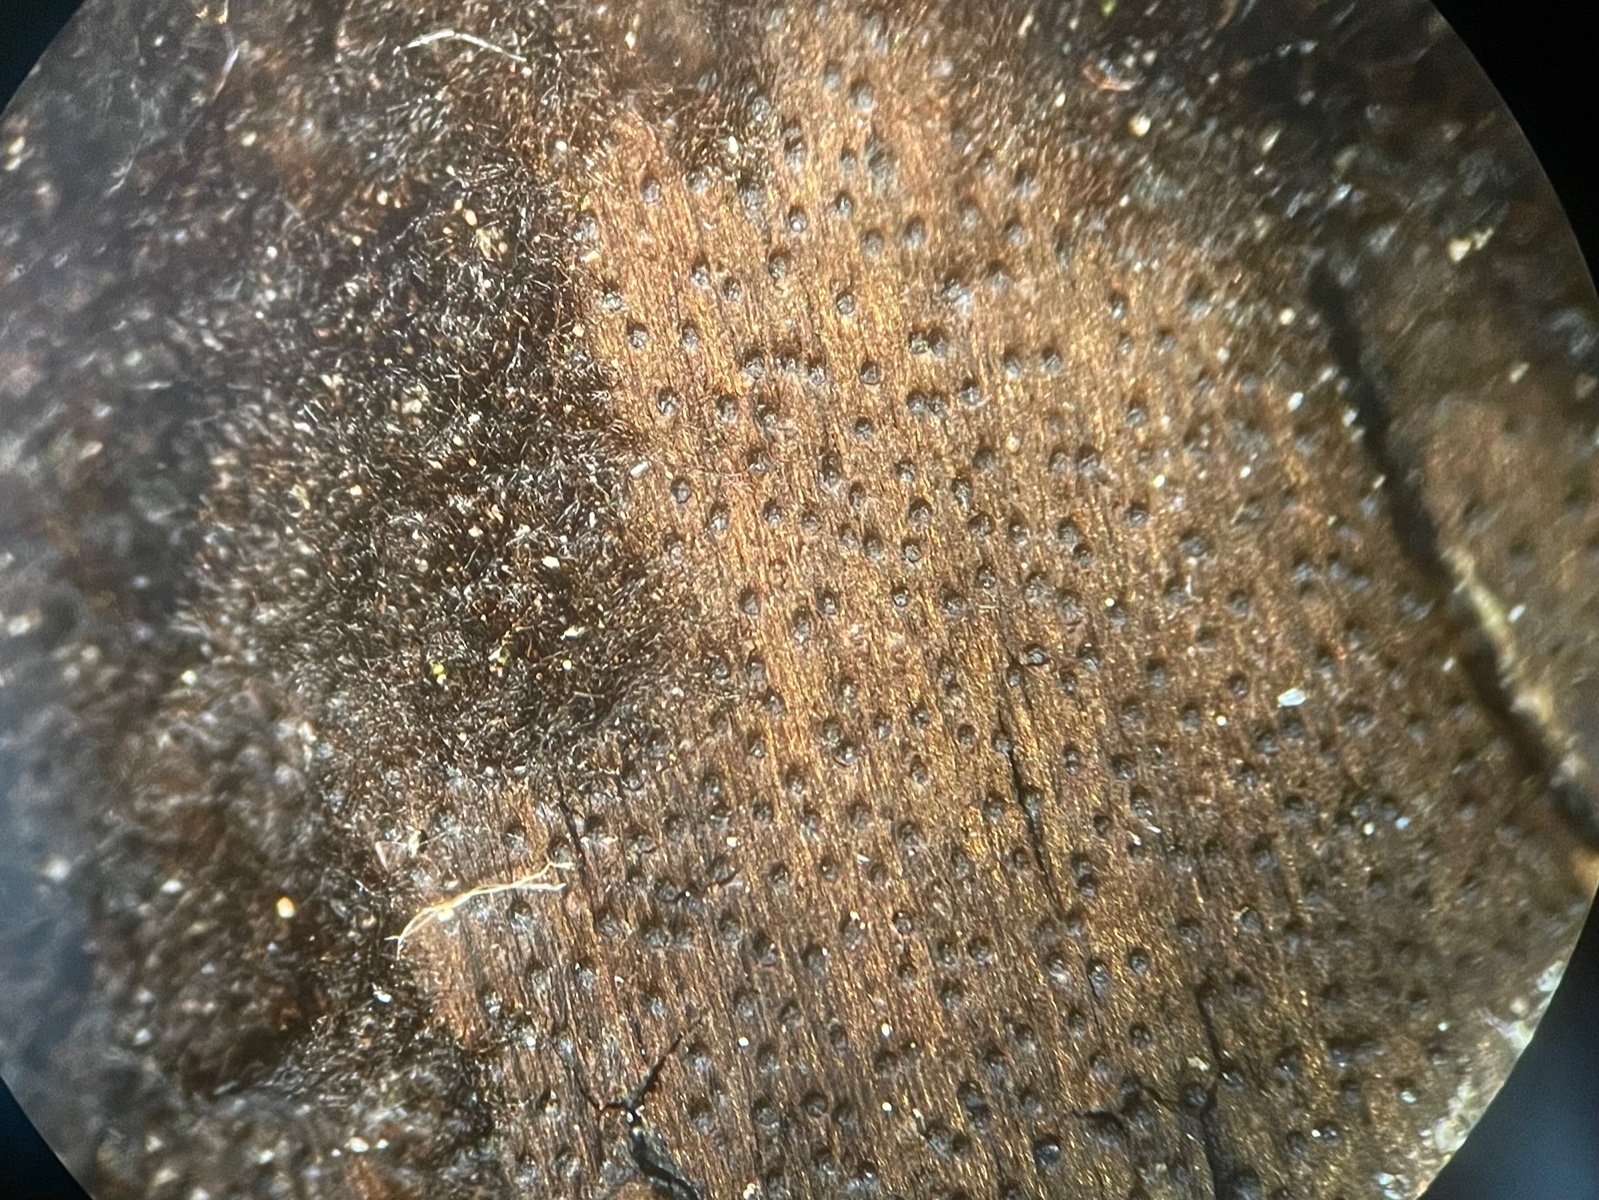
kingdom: Fungi
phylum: Ascomycota
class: Sordariomycetes
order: Coronophorales
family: Chaetosphaerellaceae
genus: Chaetosphaerella
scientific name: Chaetosphaerella phaeostroma
